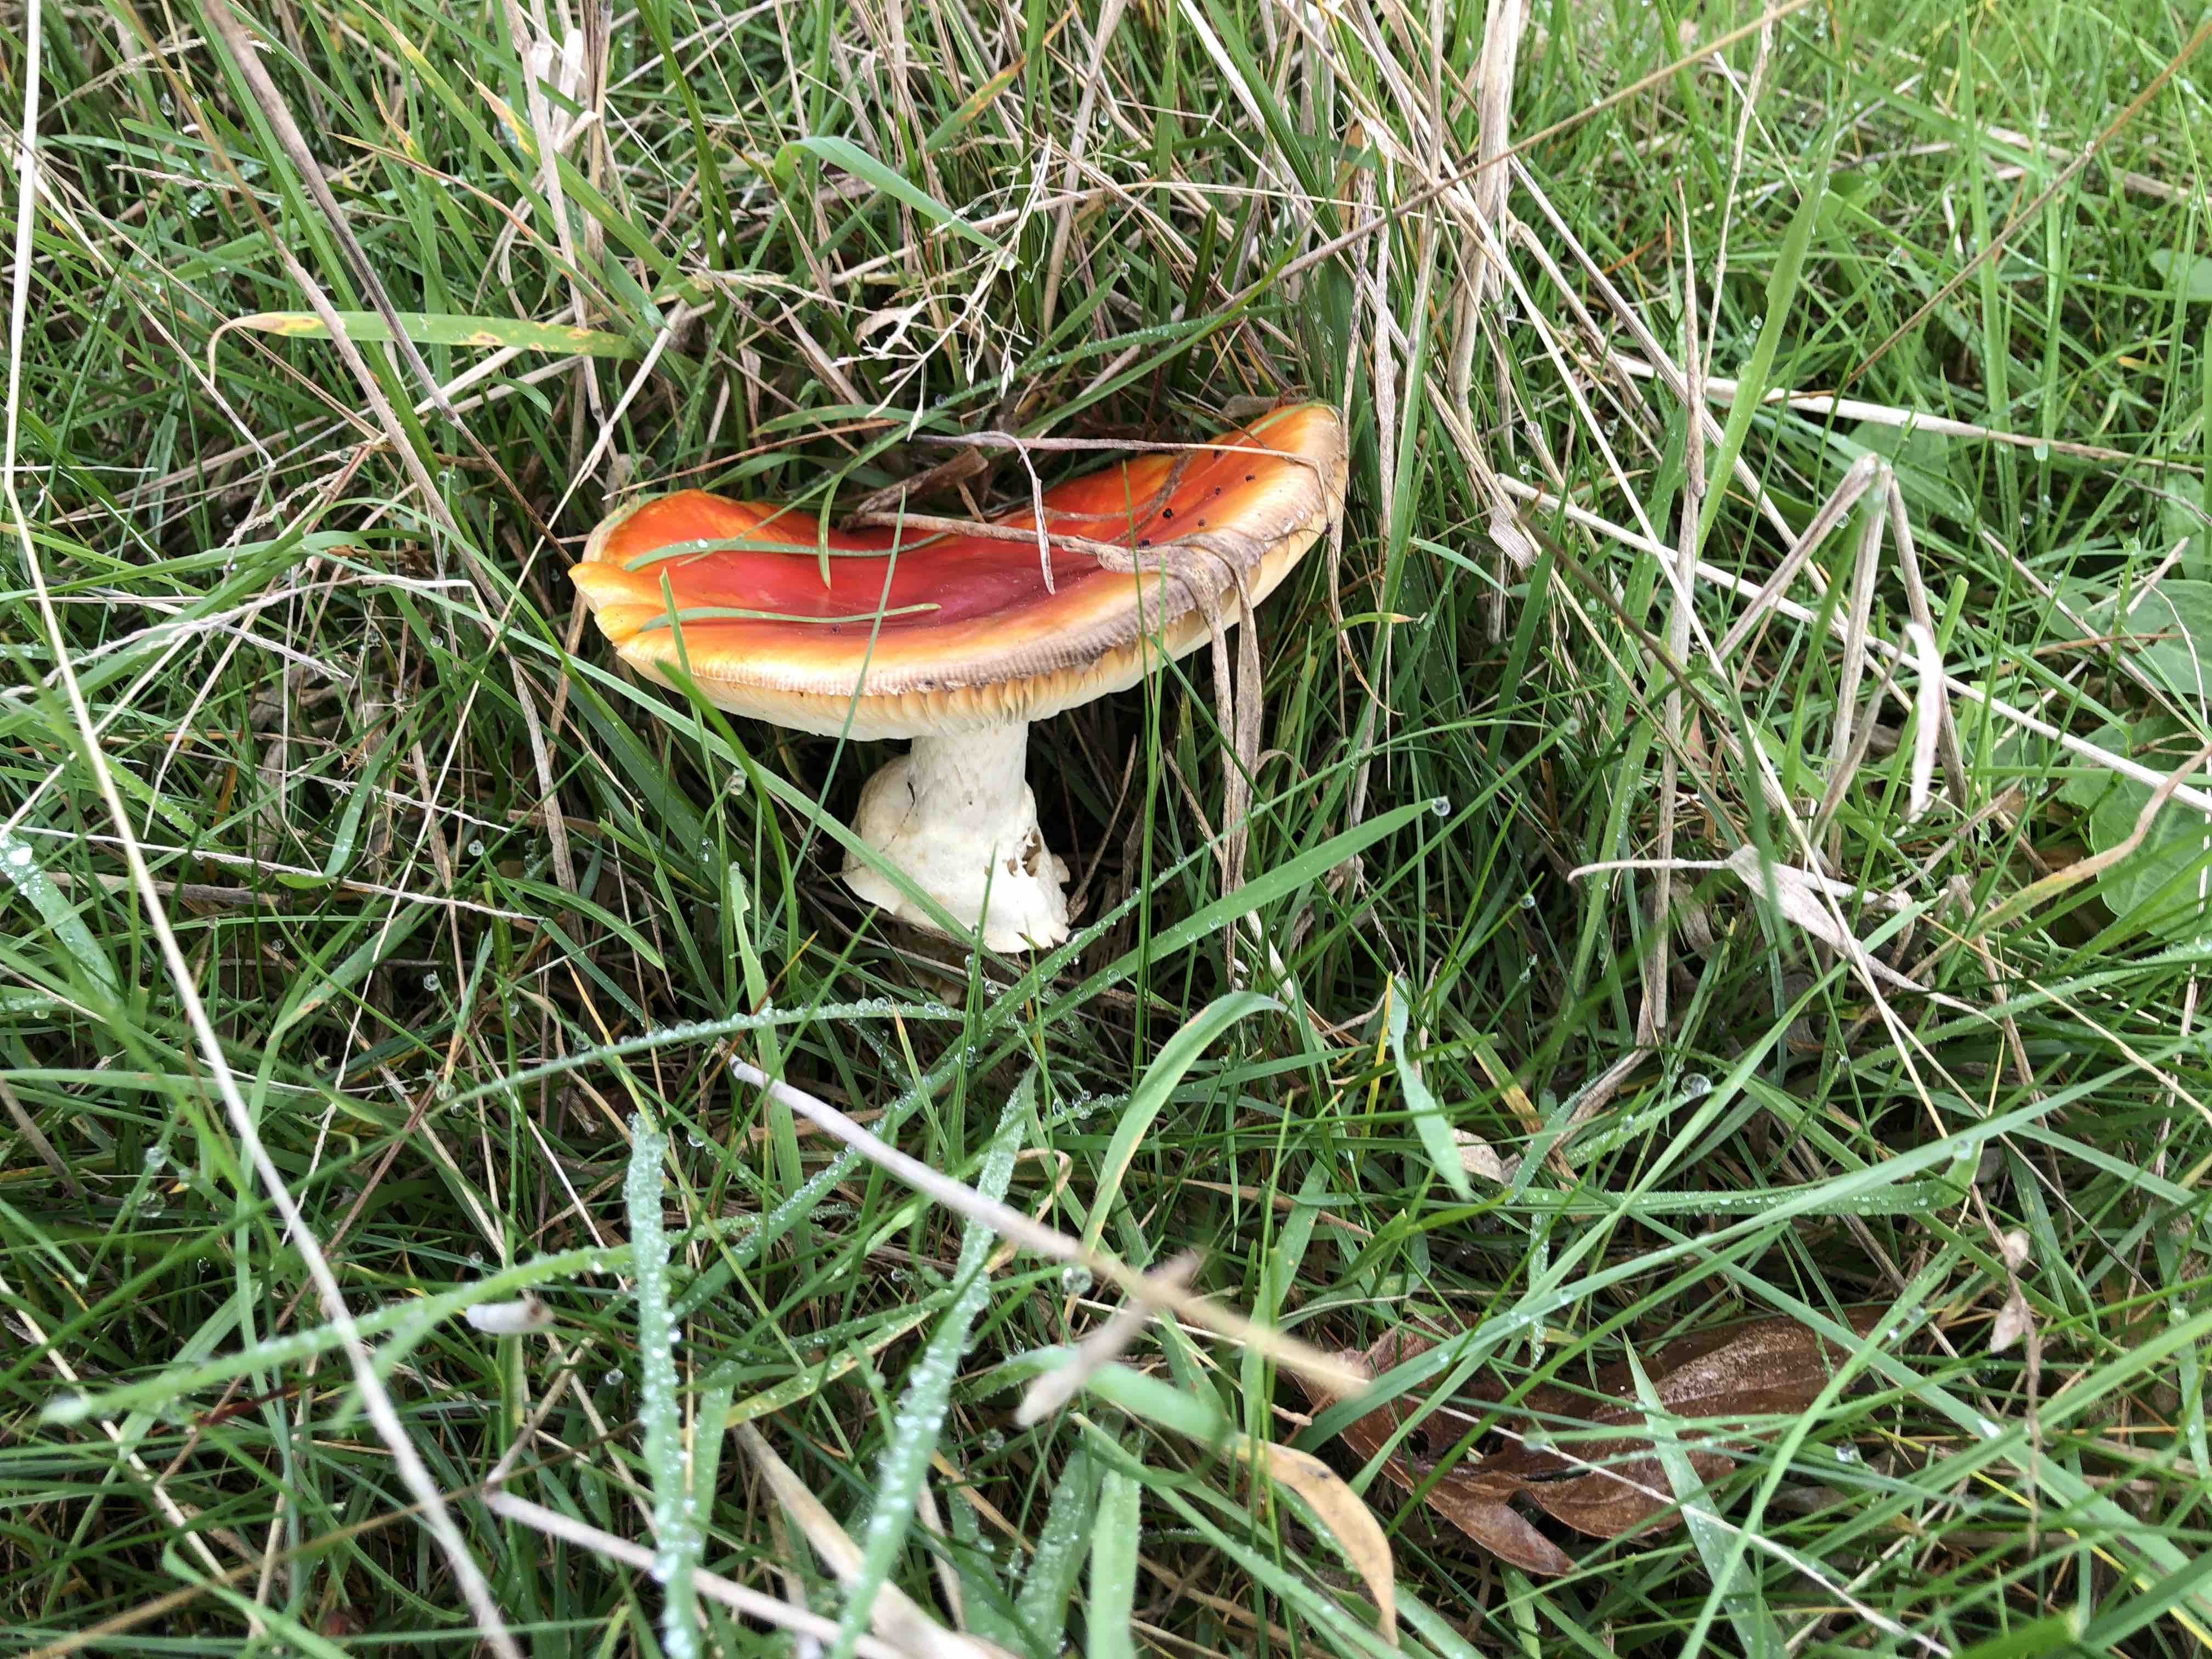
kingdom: Fungi
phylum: Basidiomycota
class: Agaricomycetes
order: Agaricales
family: Amanitaceae
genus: Amanita
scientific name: Amanita muscaria
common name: rød fluesvamp
